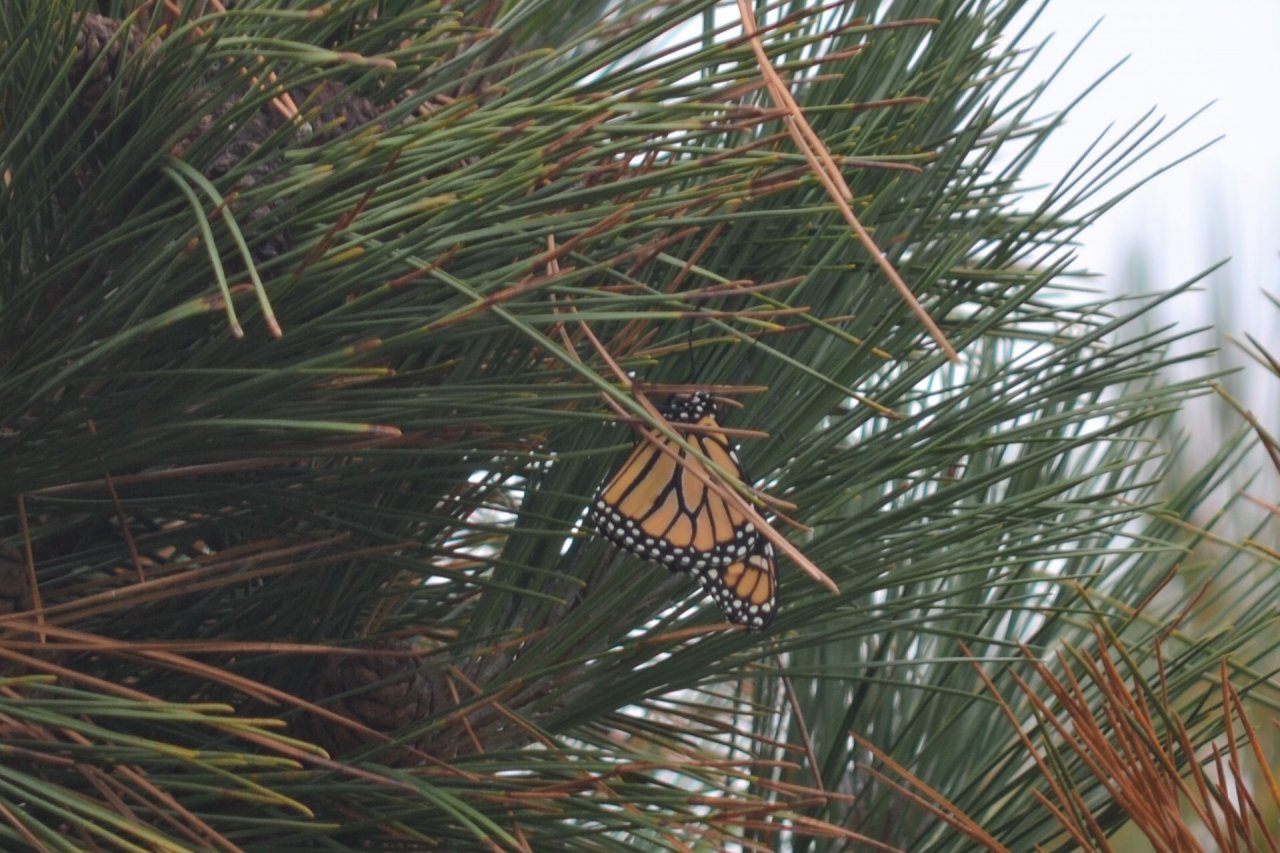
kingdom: Animalia
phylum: Arthropoda
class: Insecta
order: Lepidoptera
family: Nymphalidae
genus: Danaus
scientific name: Danaus plexippus
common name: Monarch
